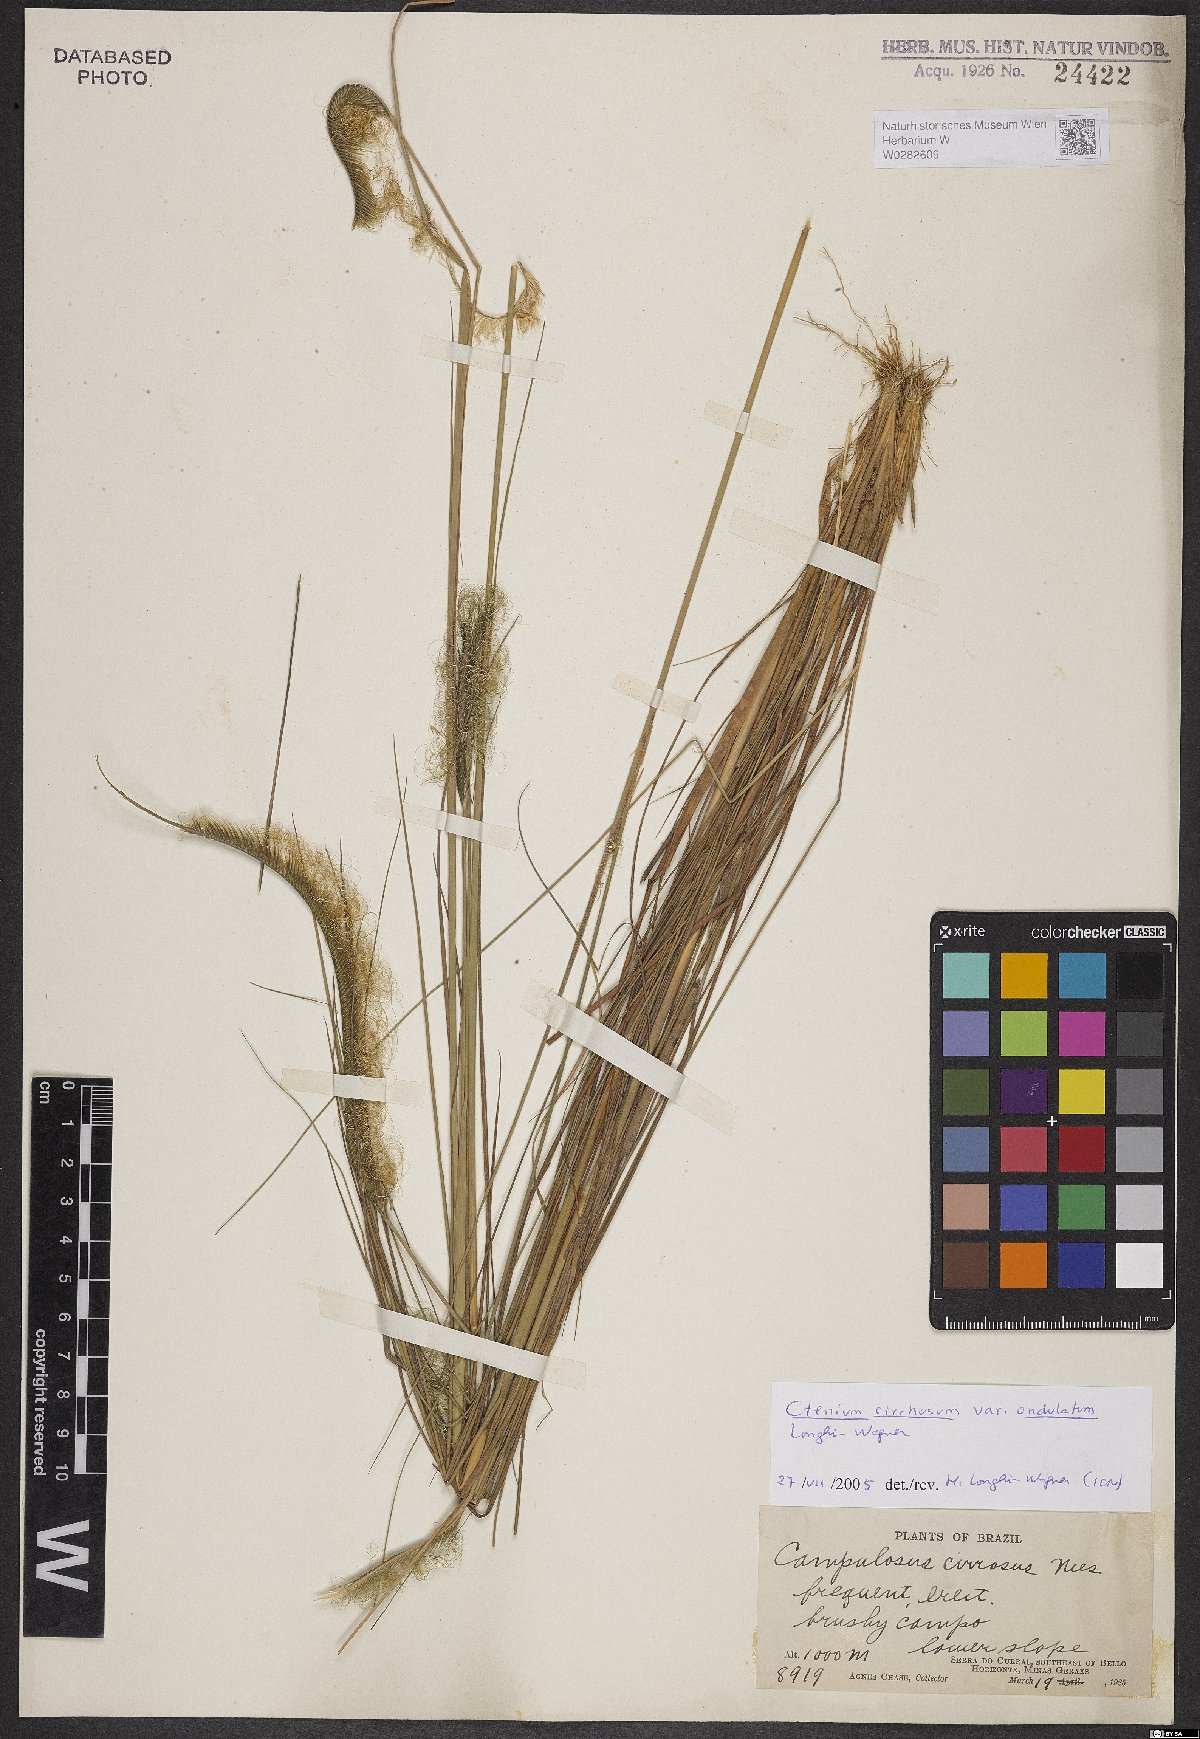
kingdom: Plantae
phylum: Tracheophyta
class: Liliopsida
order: Poales
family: Poaceae
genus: Ctenium
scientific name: Ctenium cirrhosum
